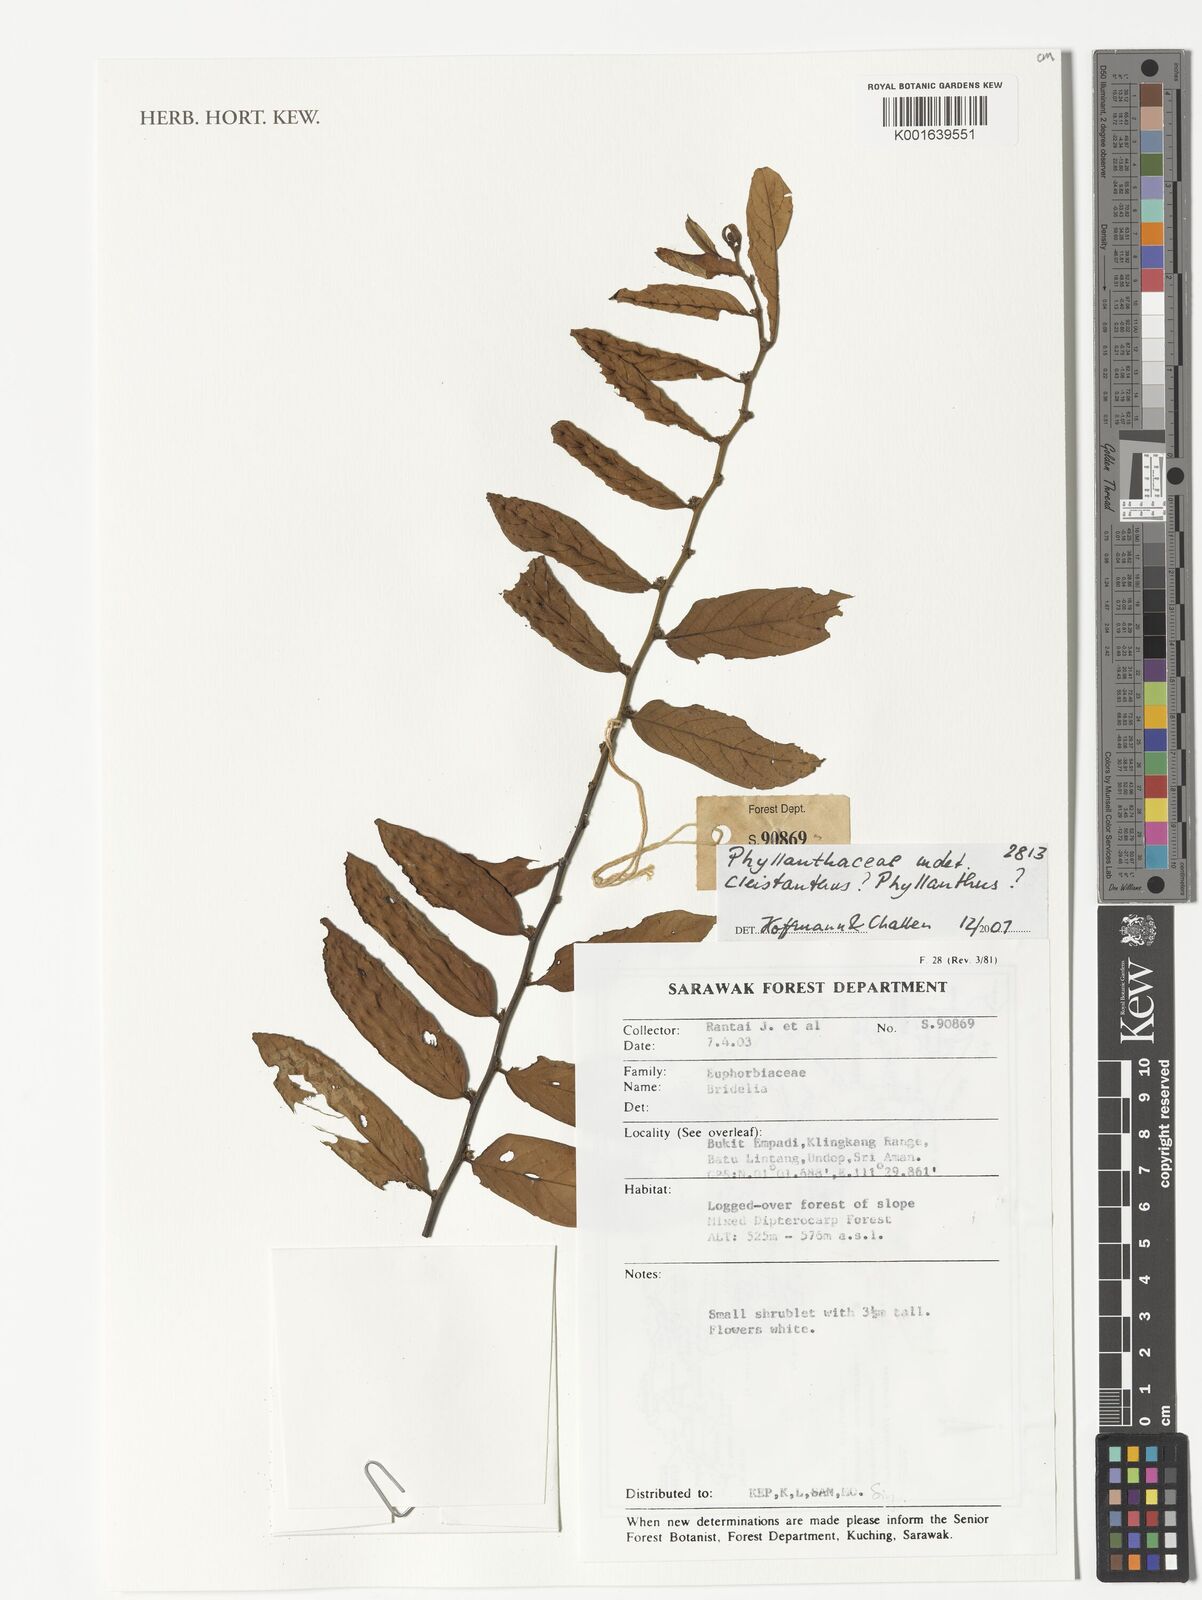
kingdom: Plantae
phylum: Tracheophyta
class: Magnoliopsida
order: Malpighiales
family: Phyllanthaceae
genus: Bridelia
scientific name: Bridelia
